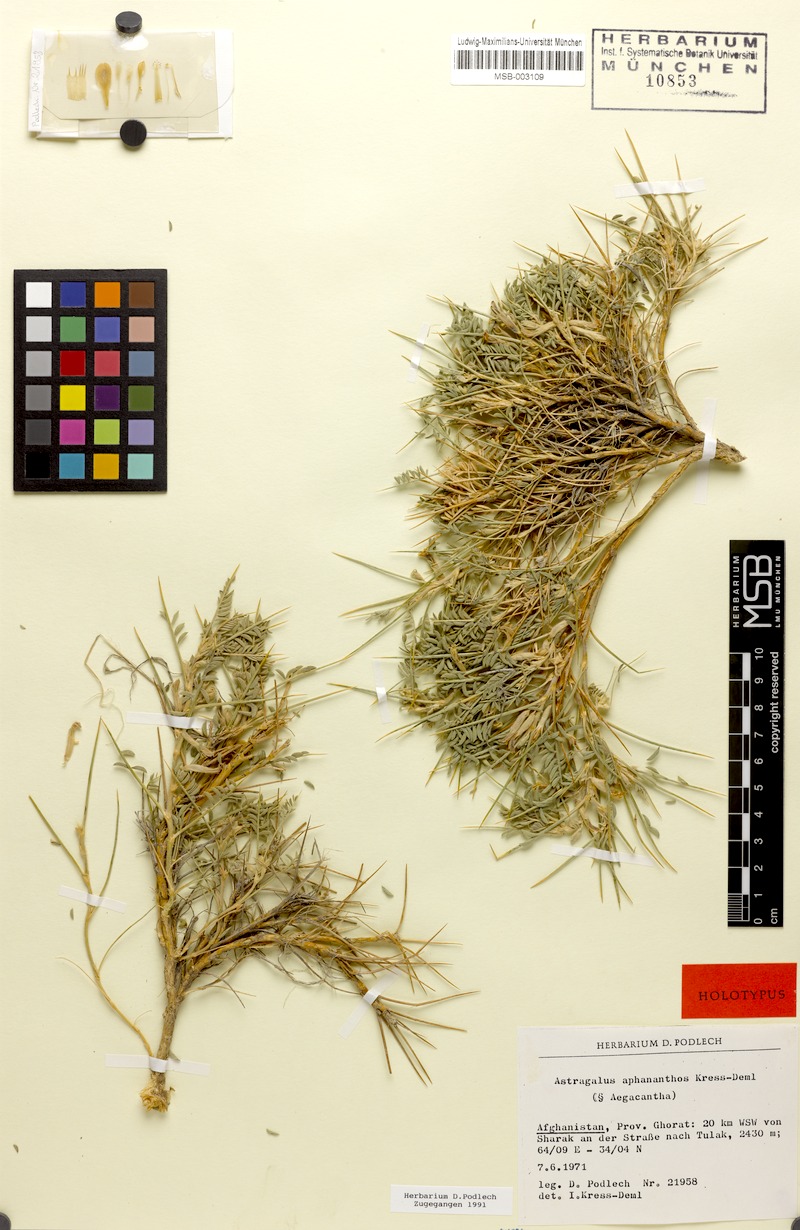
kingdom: Plantae
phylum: Tracheophyta
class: Magnoliopsida
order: Fabales
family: Fabaceae
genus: Astragalus
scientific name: Astragalus sharestanicus
